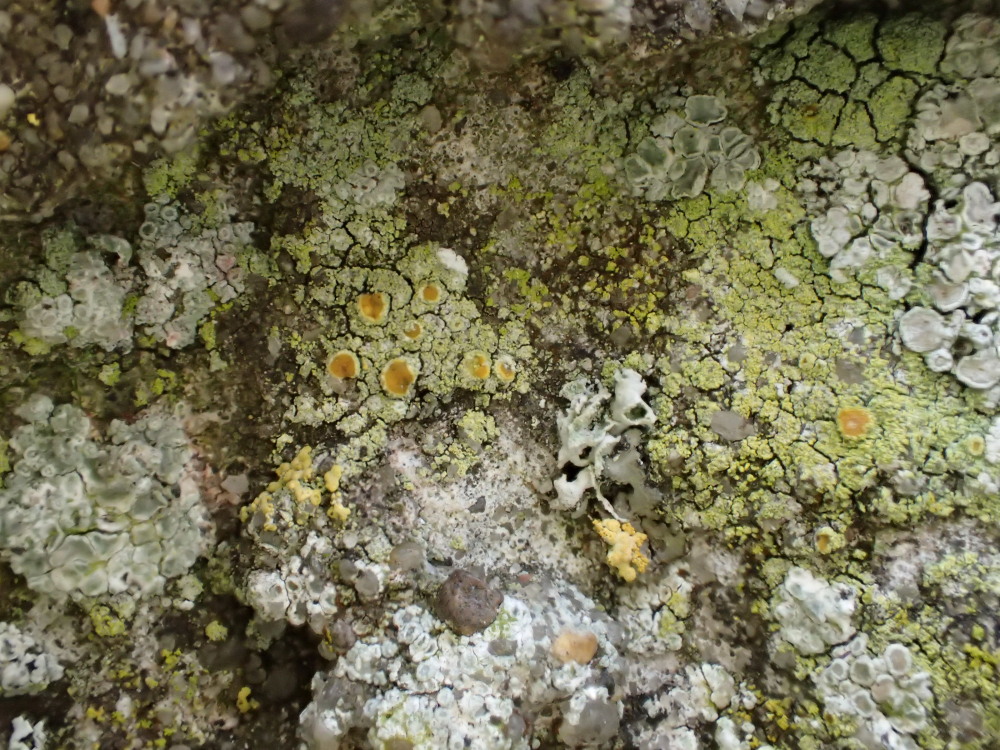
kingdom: Fungi
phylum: Ascomycota
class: Lecanoromycetes
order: Teloschistales
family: Teloschistaceae
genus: Flavoplaca
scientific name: Flavoplaca citrina
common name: støvet orangelav
